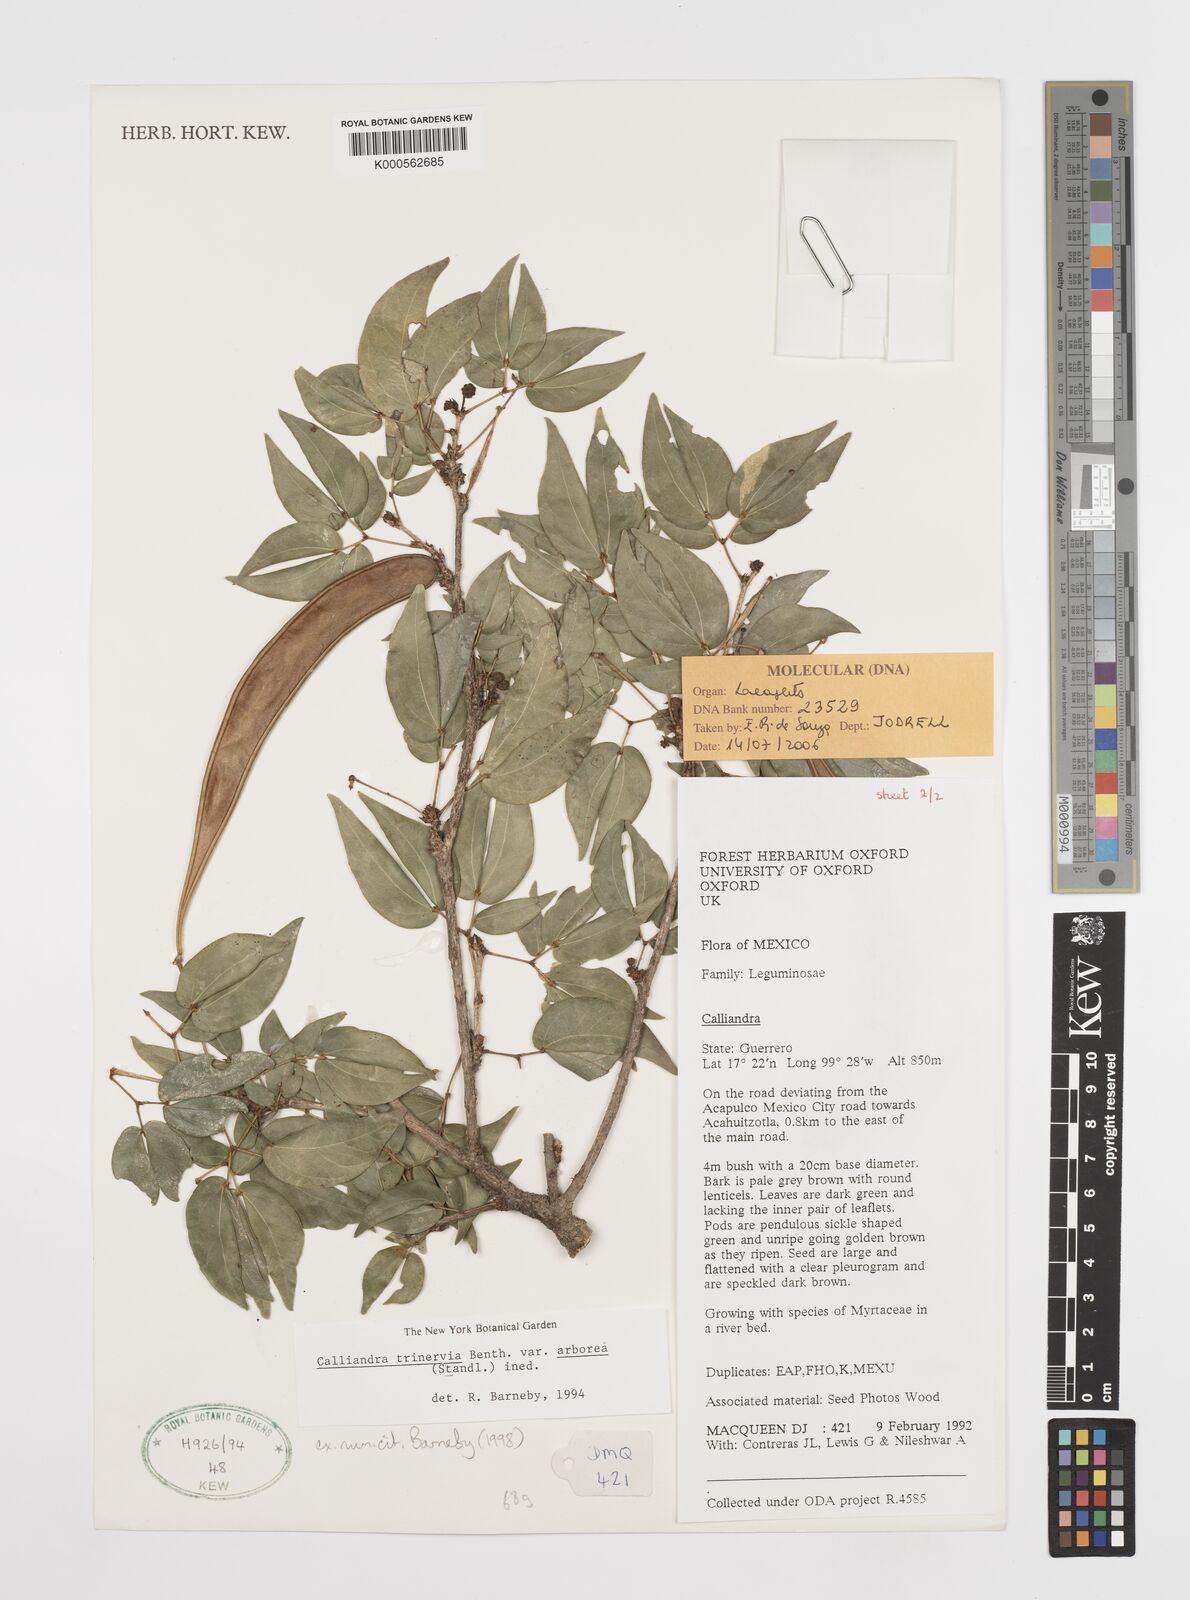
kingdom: Plantae
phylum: Tracheophyta
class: Magnoliopsida
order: Fabales
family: Fabaceae
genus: Calliandra
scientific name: Calliandra trinervia
